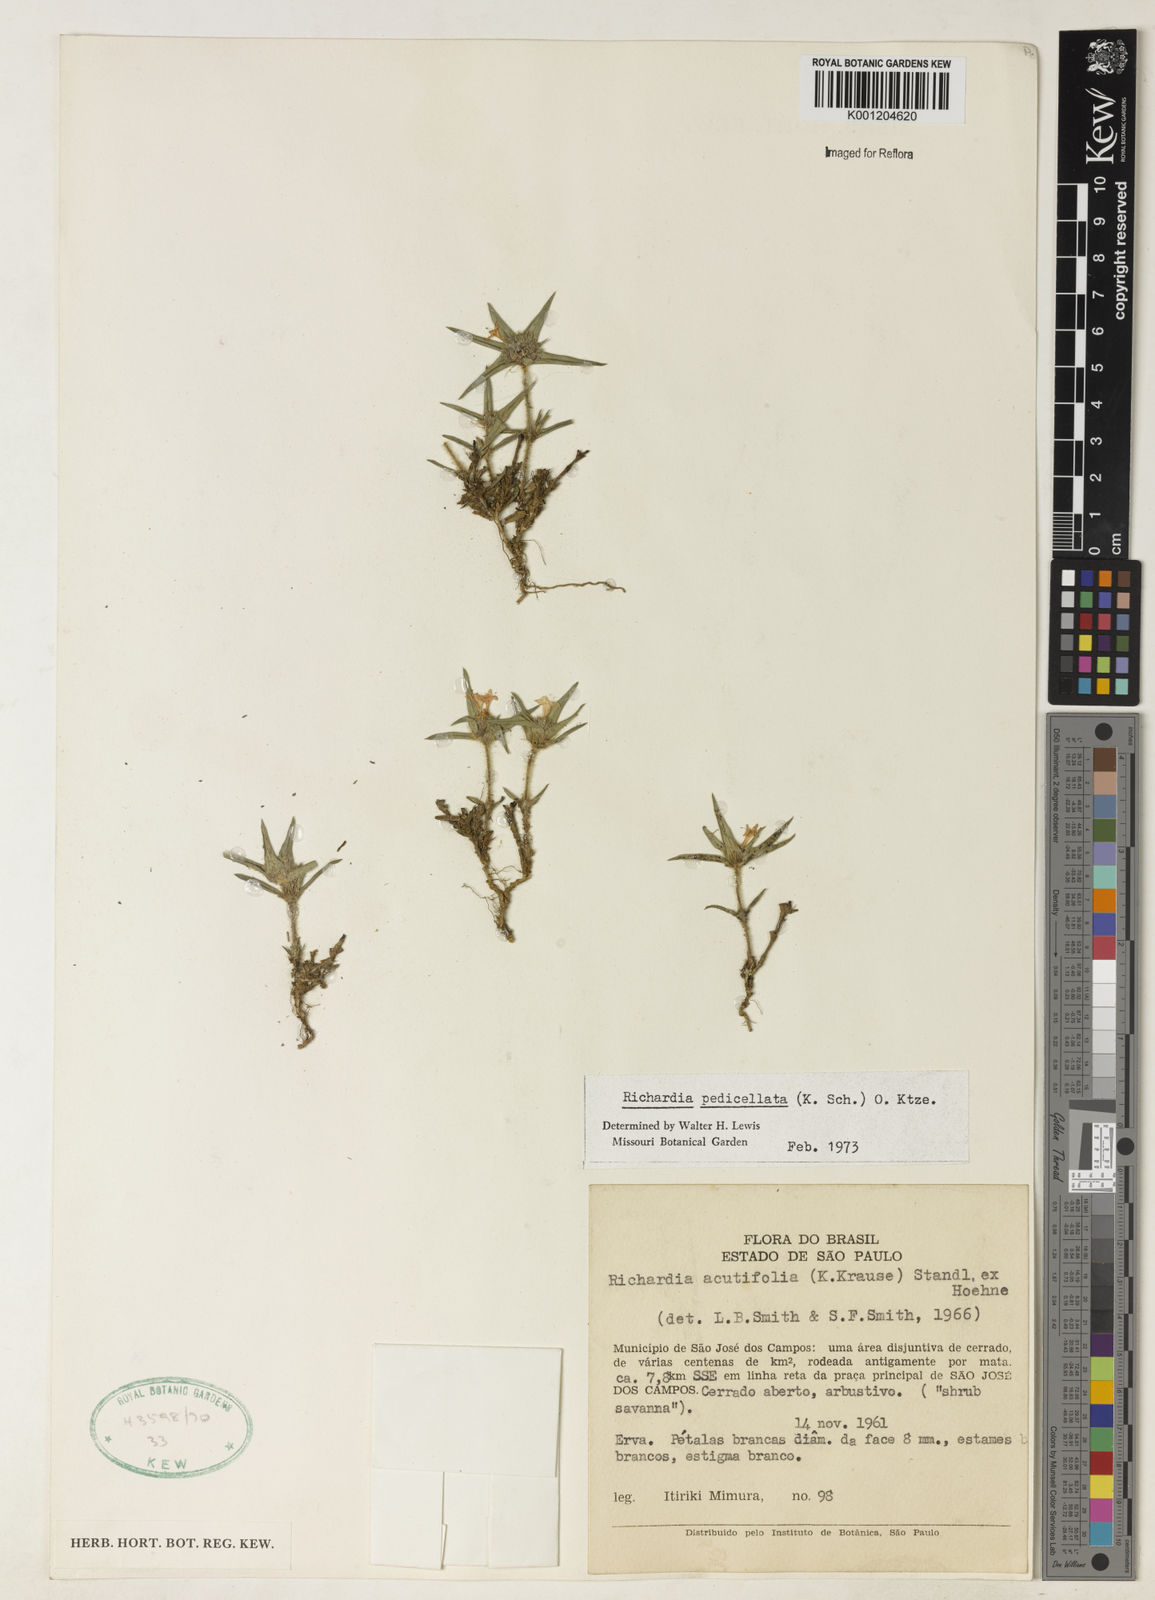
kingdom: Plantae
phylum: Tracheophyta
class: Magnoliopsida
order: Gentianales
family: Rubiaceae
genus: Richardia
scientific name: Richardia pedicellata
